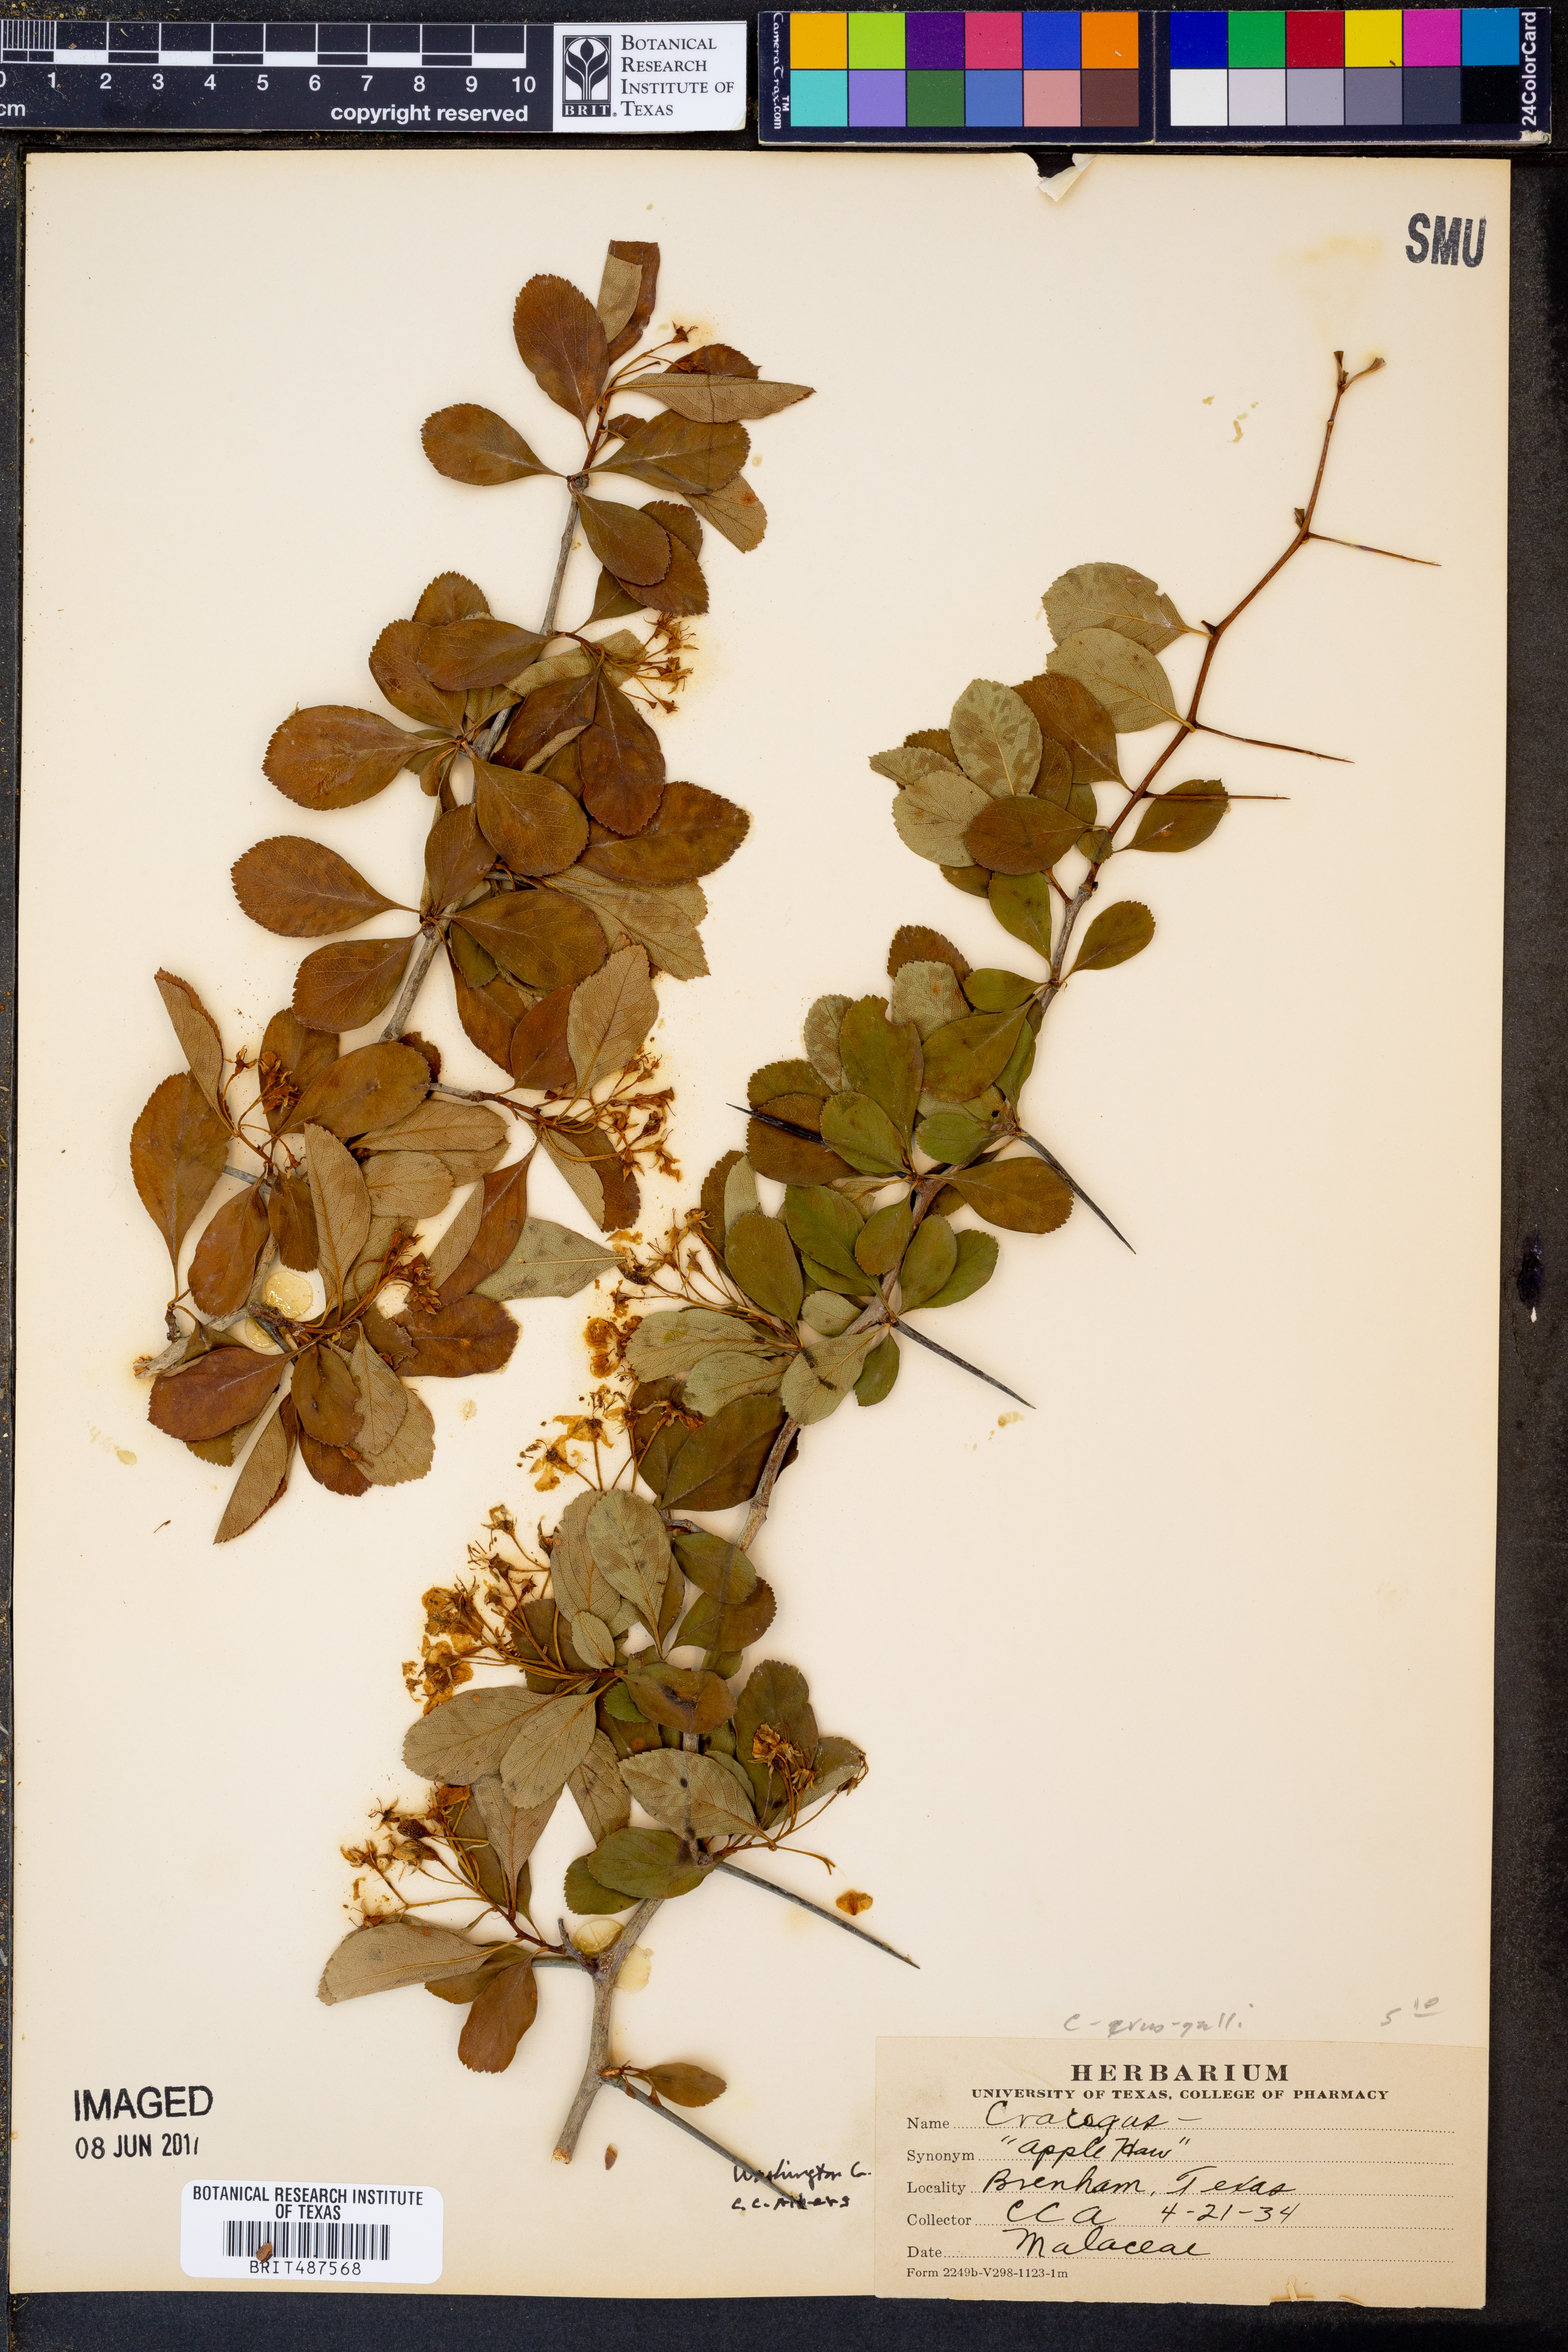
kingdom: Plantae
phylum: Tracheophyta
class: Magnoliopsida
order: Rosales
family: Rosaceae
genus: Crataegus
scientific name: Crataegus crus-galli
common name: Cockspurthorn
